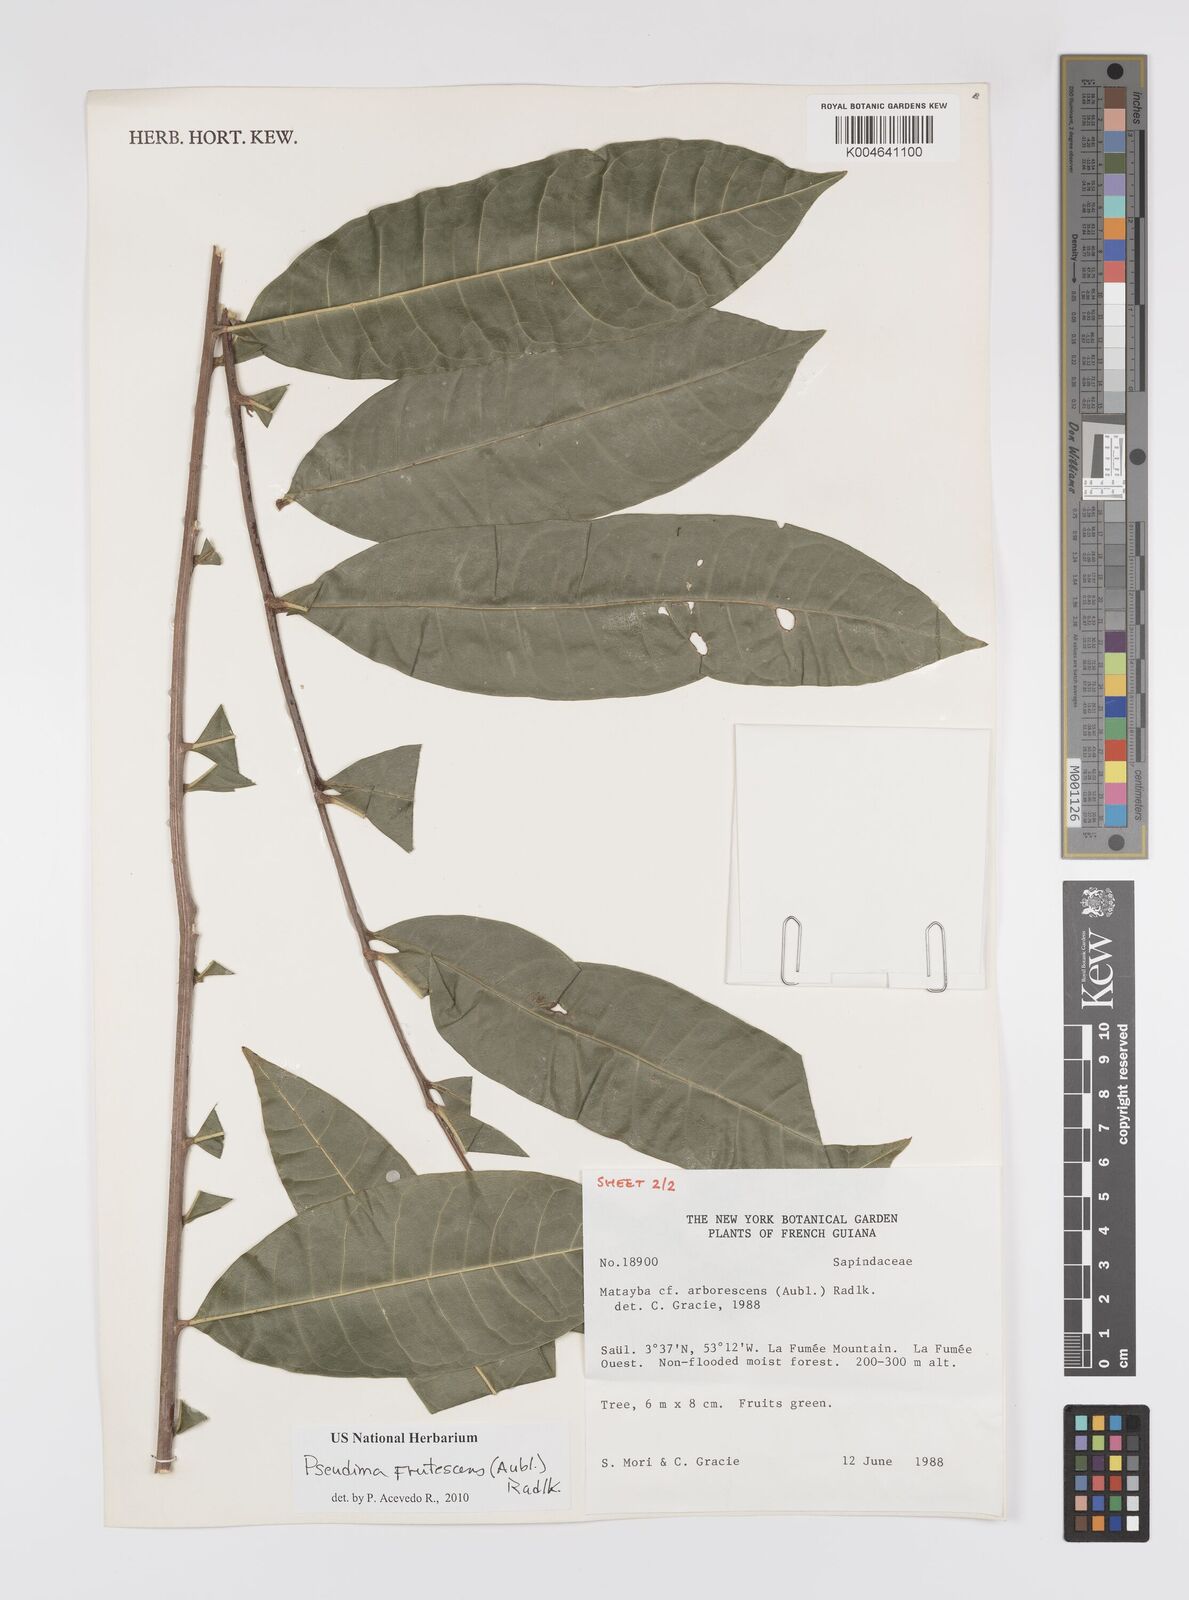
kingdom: Plantae
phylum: Tracheophyta
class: Magnoliopsida
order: Sapindales
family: Sapindaceae
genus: Pseudima
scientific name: Pseudima frutescens
